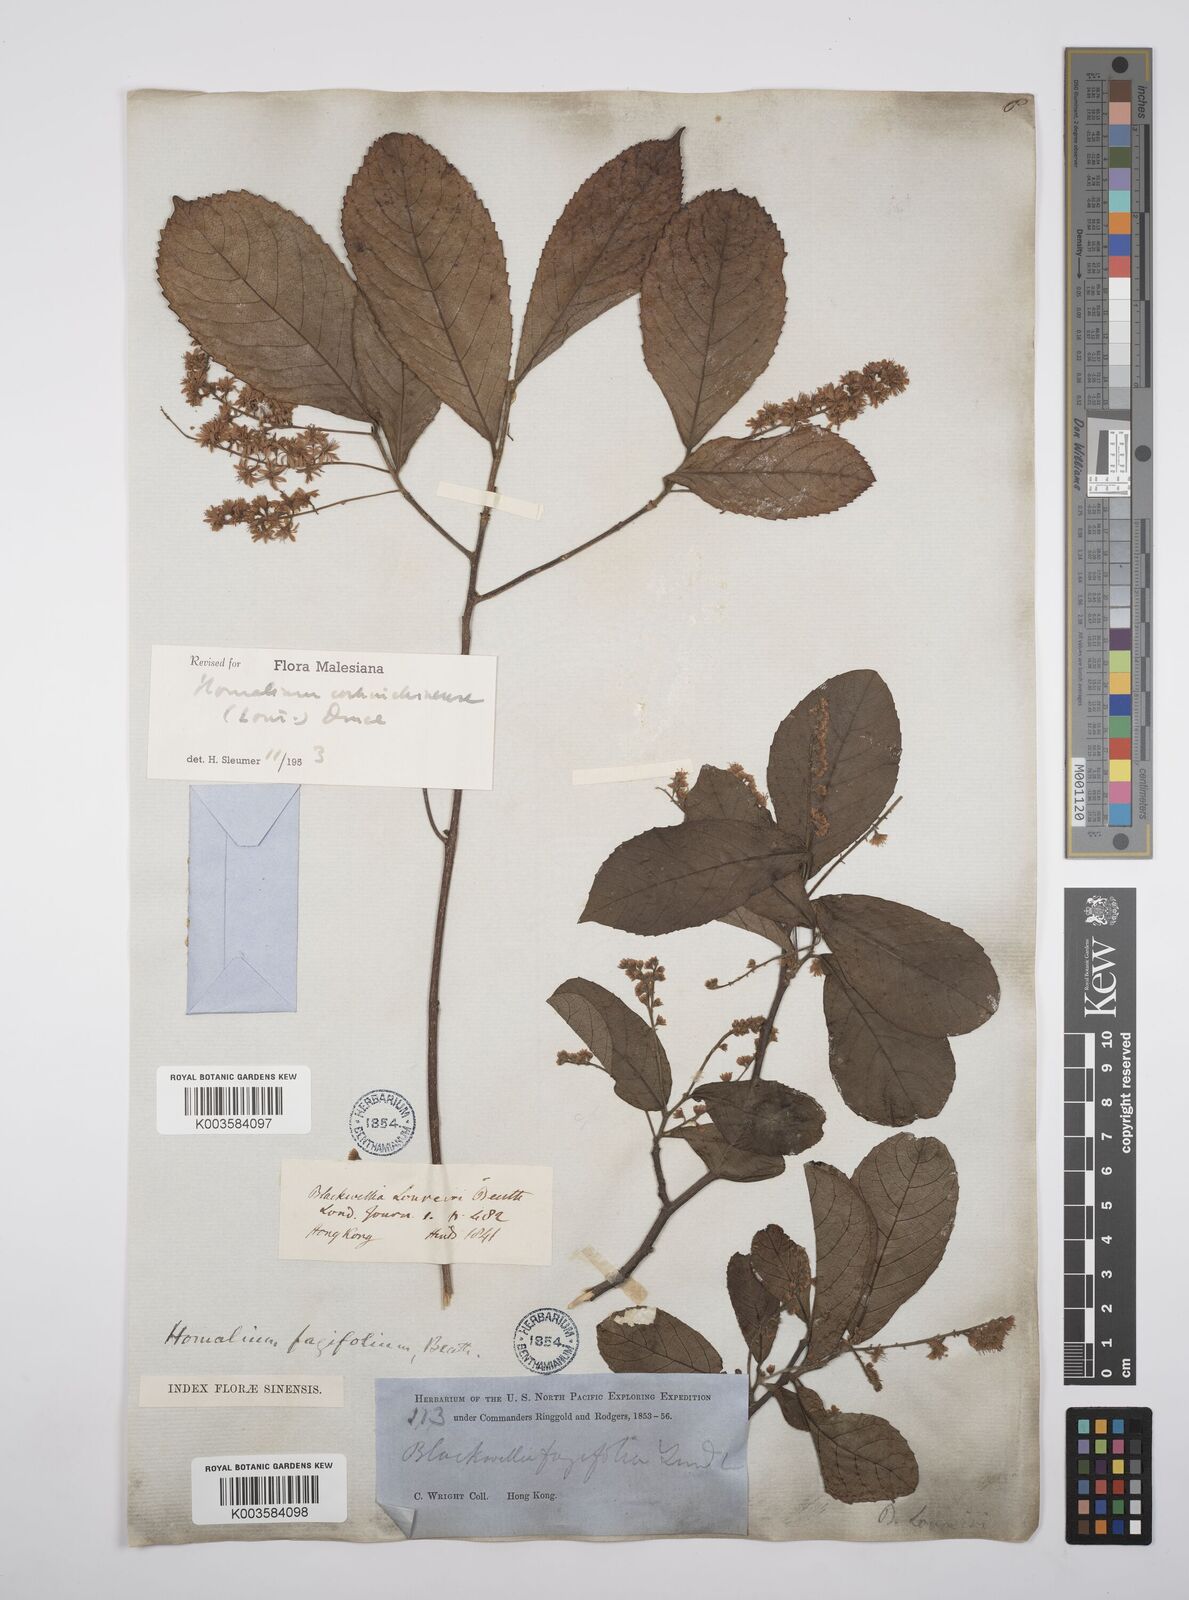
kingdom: Plantae
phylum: Tracheophyta
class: Magnoliopsida
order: Malpighiales
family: Salicaceae
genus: Homalium
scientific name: Homalium cochinchinensis
